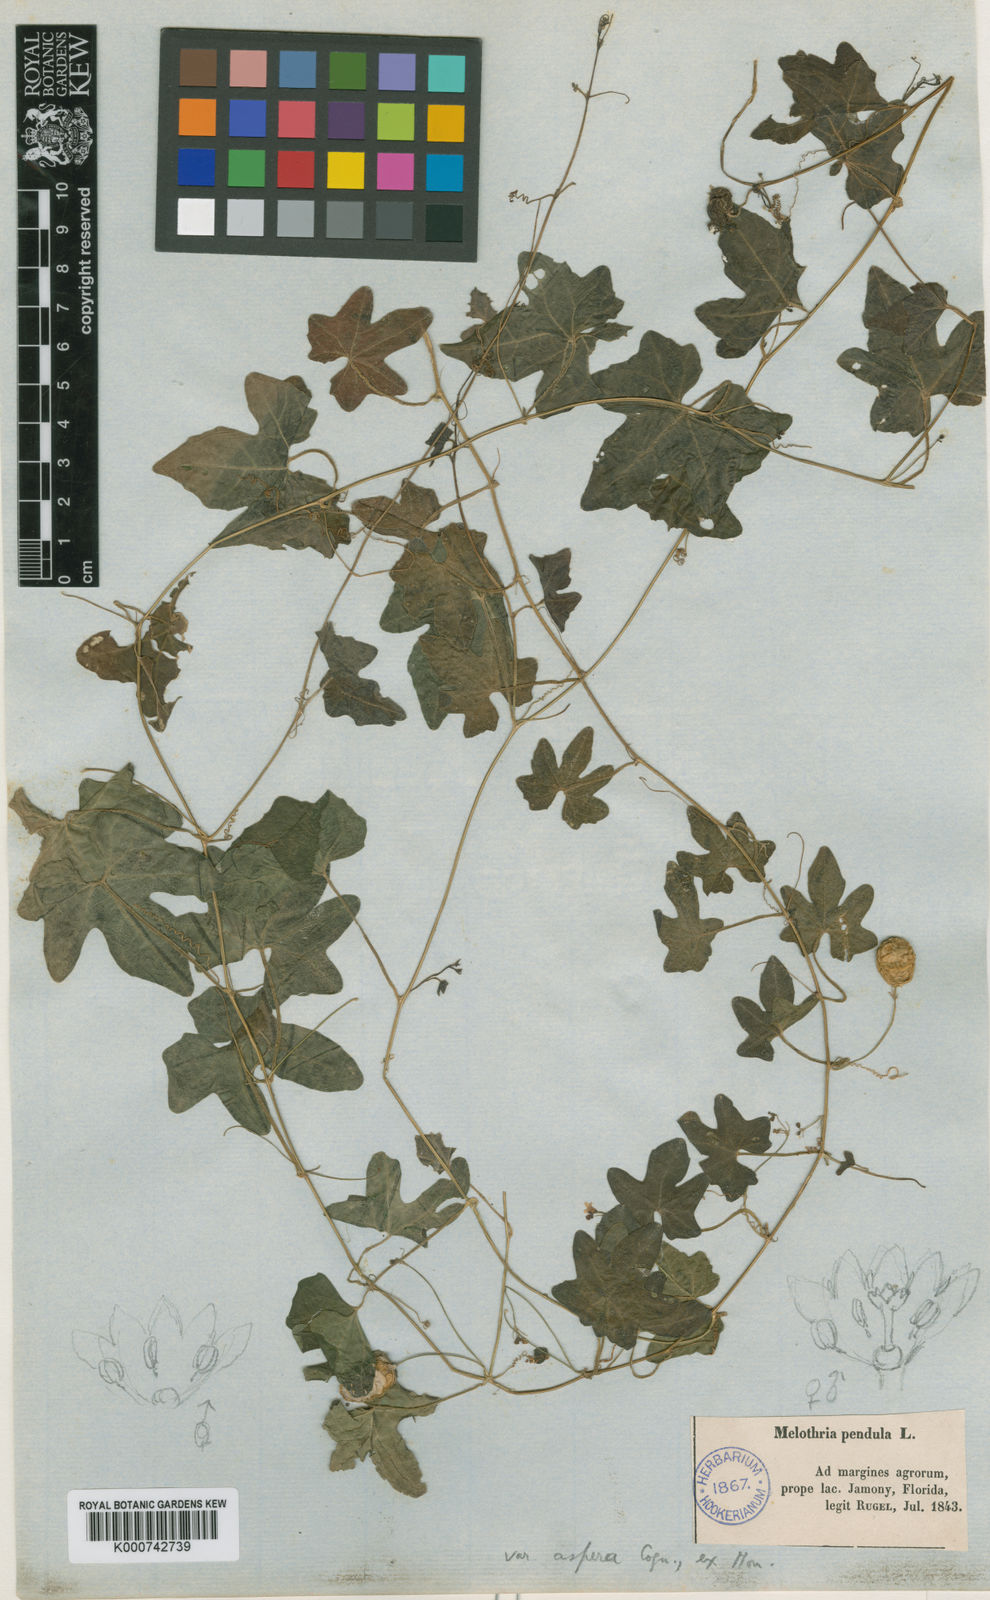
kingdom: Plantae
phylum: Tracheophyta
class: Magnoliopsida
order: Cucurbitales
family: Cucurbitaceae
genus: Melothria
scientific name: Melothria pendula
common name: Creeping-cucumber
